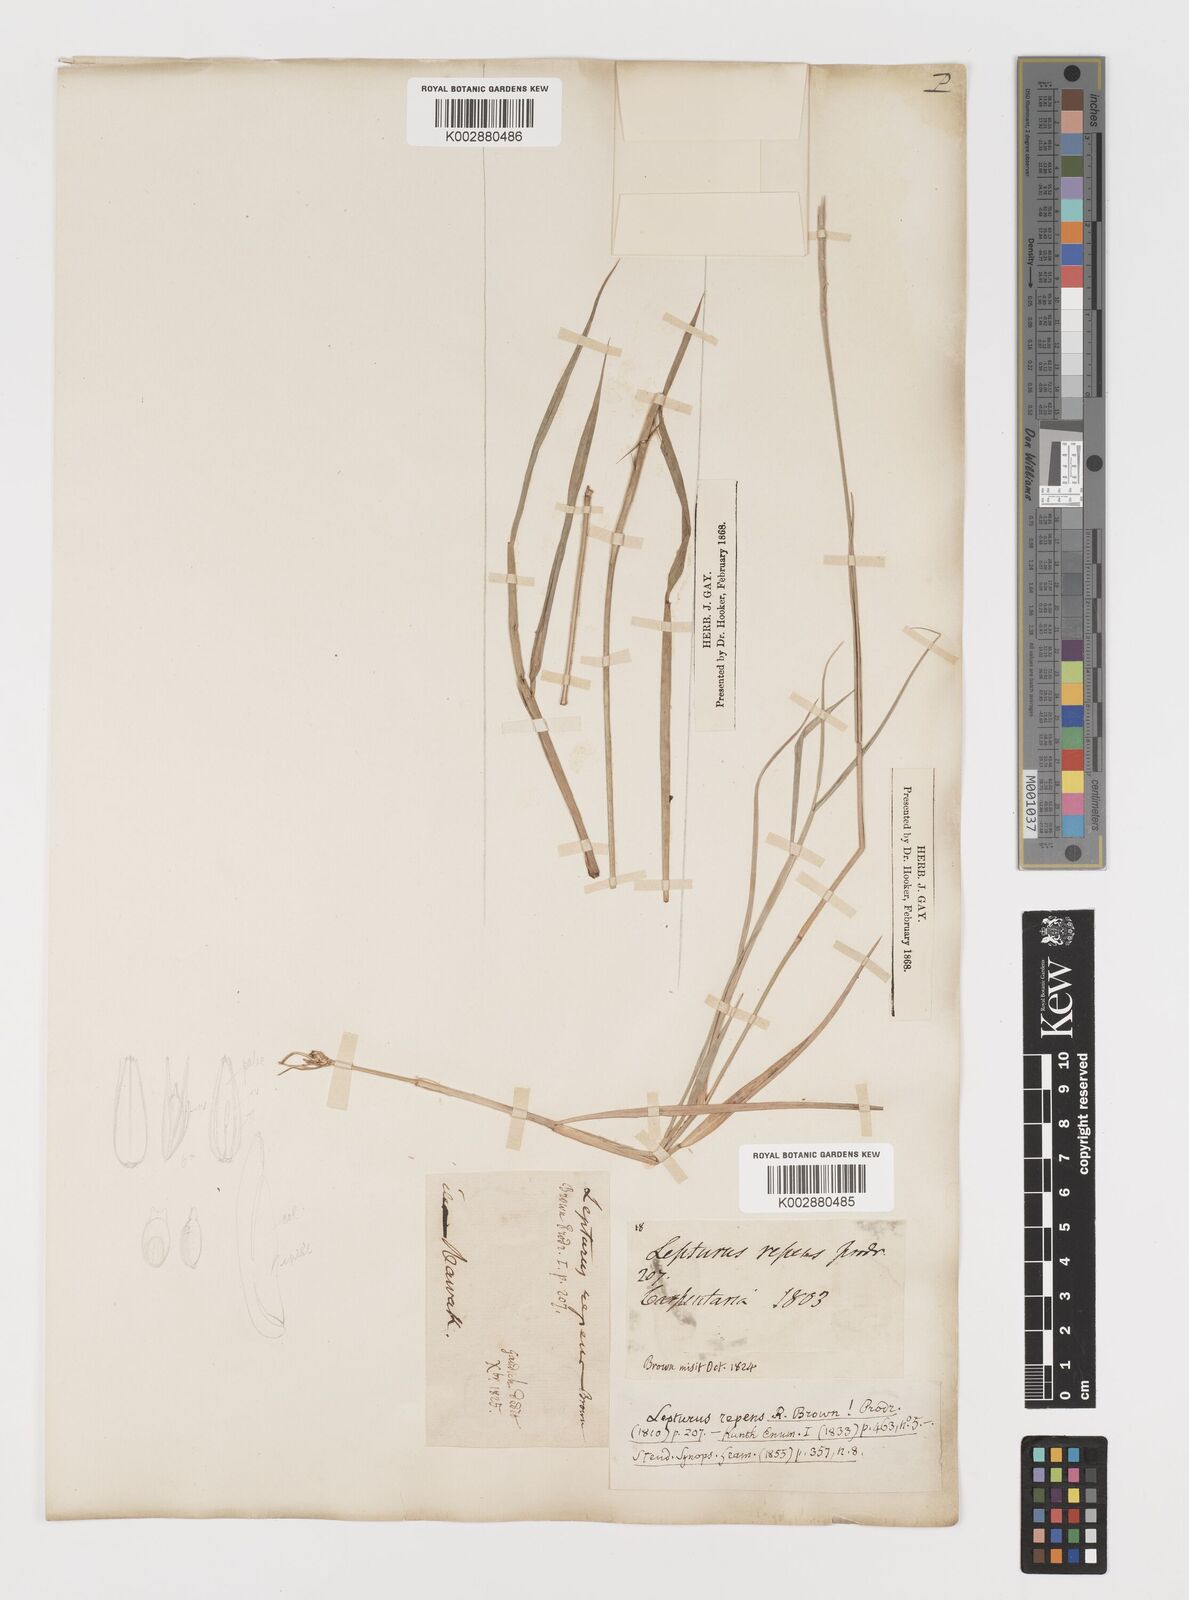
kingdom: Plantae
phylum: Tracheophyta
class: Liliopsida
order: Poales
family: Poaceae
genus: Lepturus
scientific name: Lepturus repens
